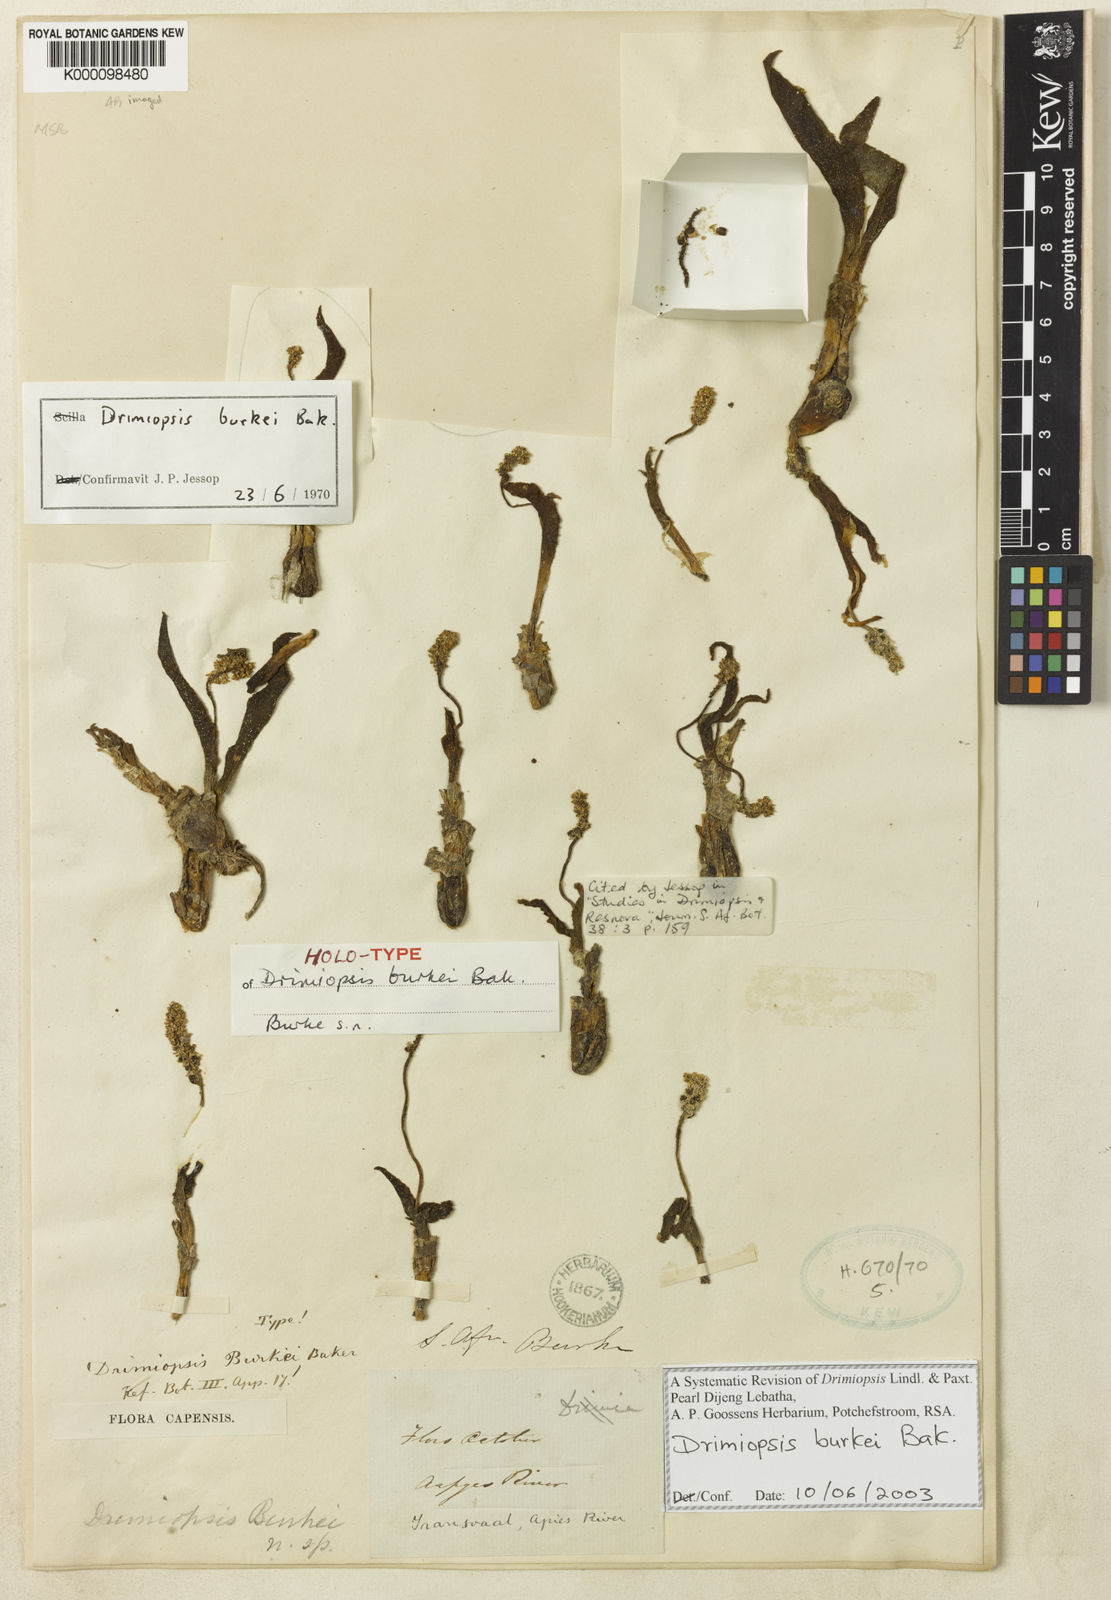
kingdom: Plantae
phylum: Tracheophyta
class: Liliopsida
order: Asparagales
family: Asparagaceae
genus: Drimiopsis
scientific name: Drimiopsis burkei
